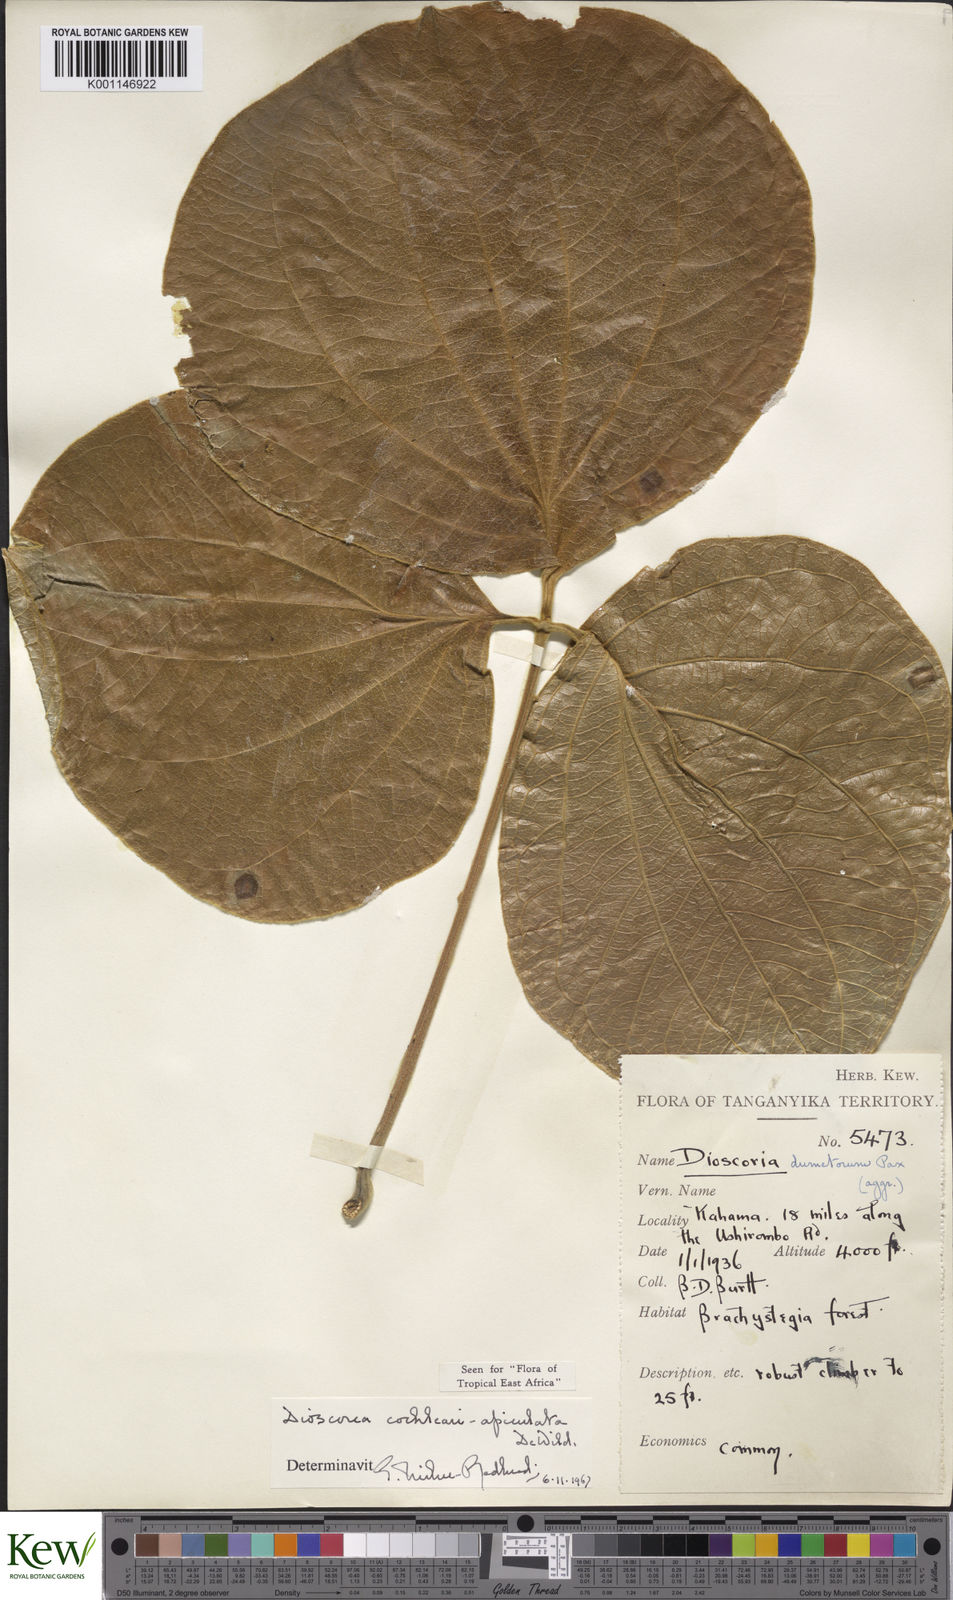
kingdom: Plantae
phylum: Tracheophyta
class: Liliopsida
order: Dioscoreales
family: Dioscoreaceae
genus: Dioscorea
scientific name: Dioscorea cochleariapiculata
